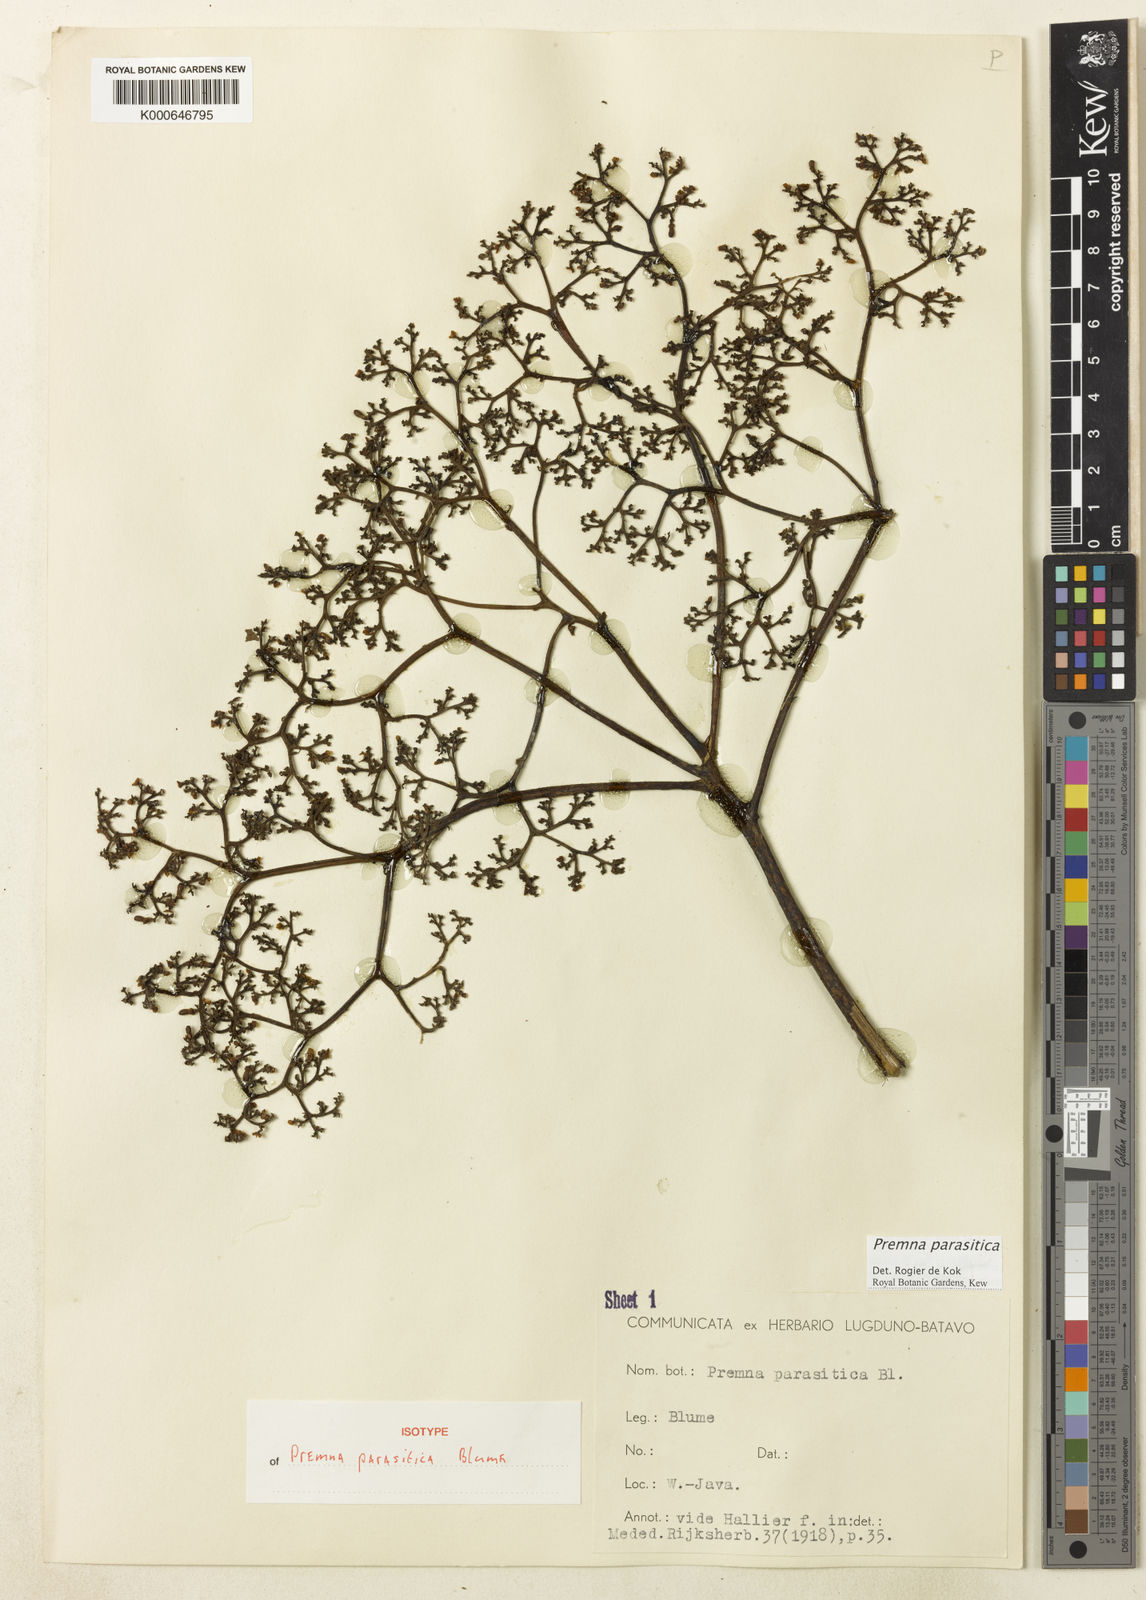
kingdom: Plantae
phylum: Tracheophyta
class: Magnoliopsida
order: Lamiales
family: Lamiaceae
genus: Premna
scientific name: Premna parasitica
